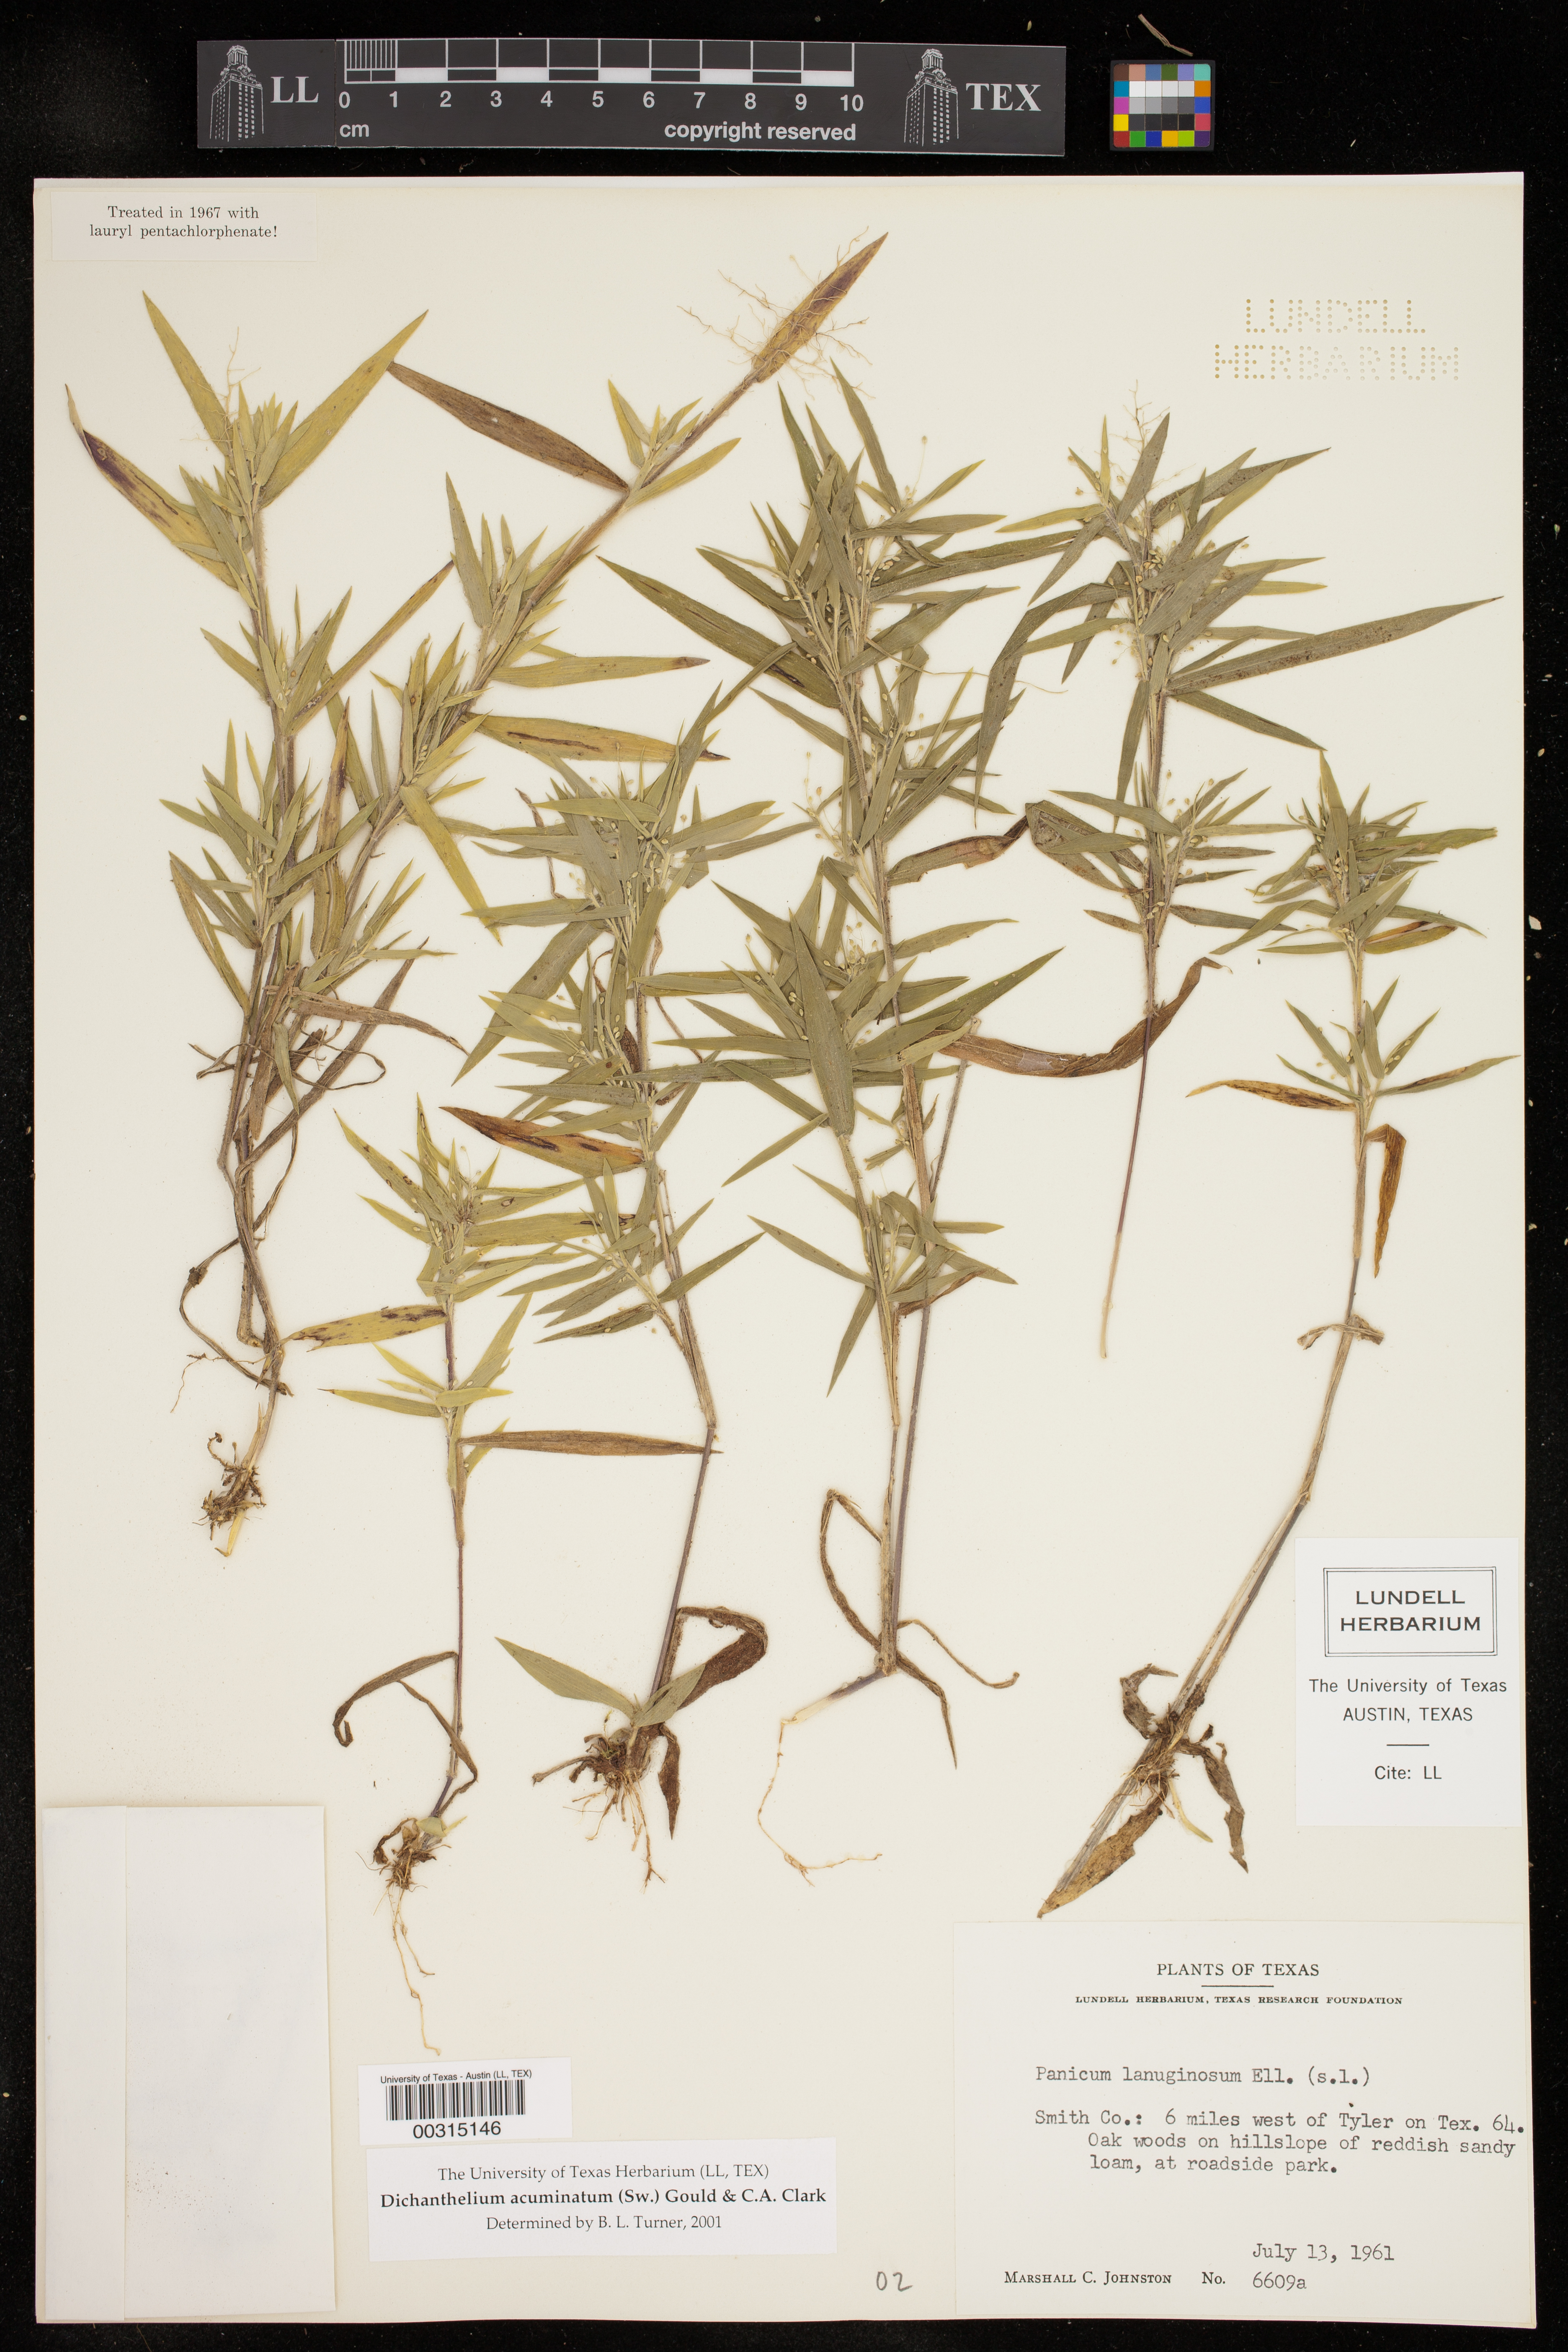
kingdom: Plantae
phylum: Tracheophyta
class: Liliopsida
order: Poales
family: Poaceae
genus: Dichanthelium
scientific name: Dichanthelium acuminatum
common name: Hairy panic grass
